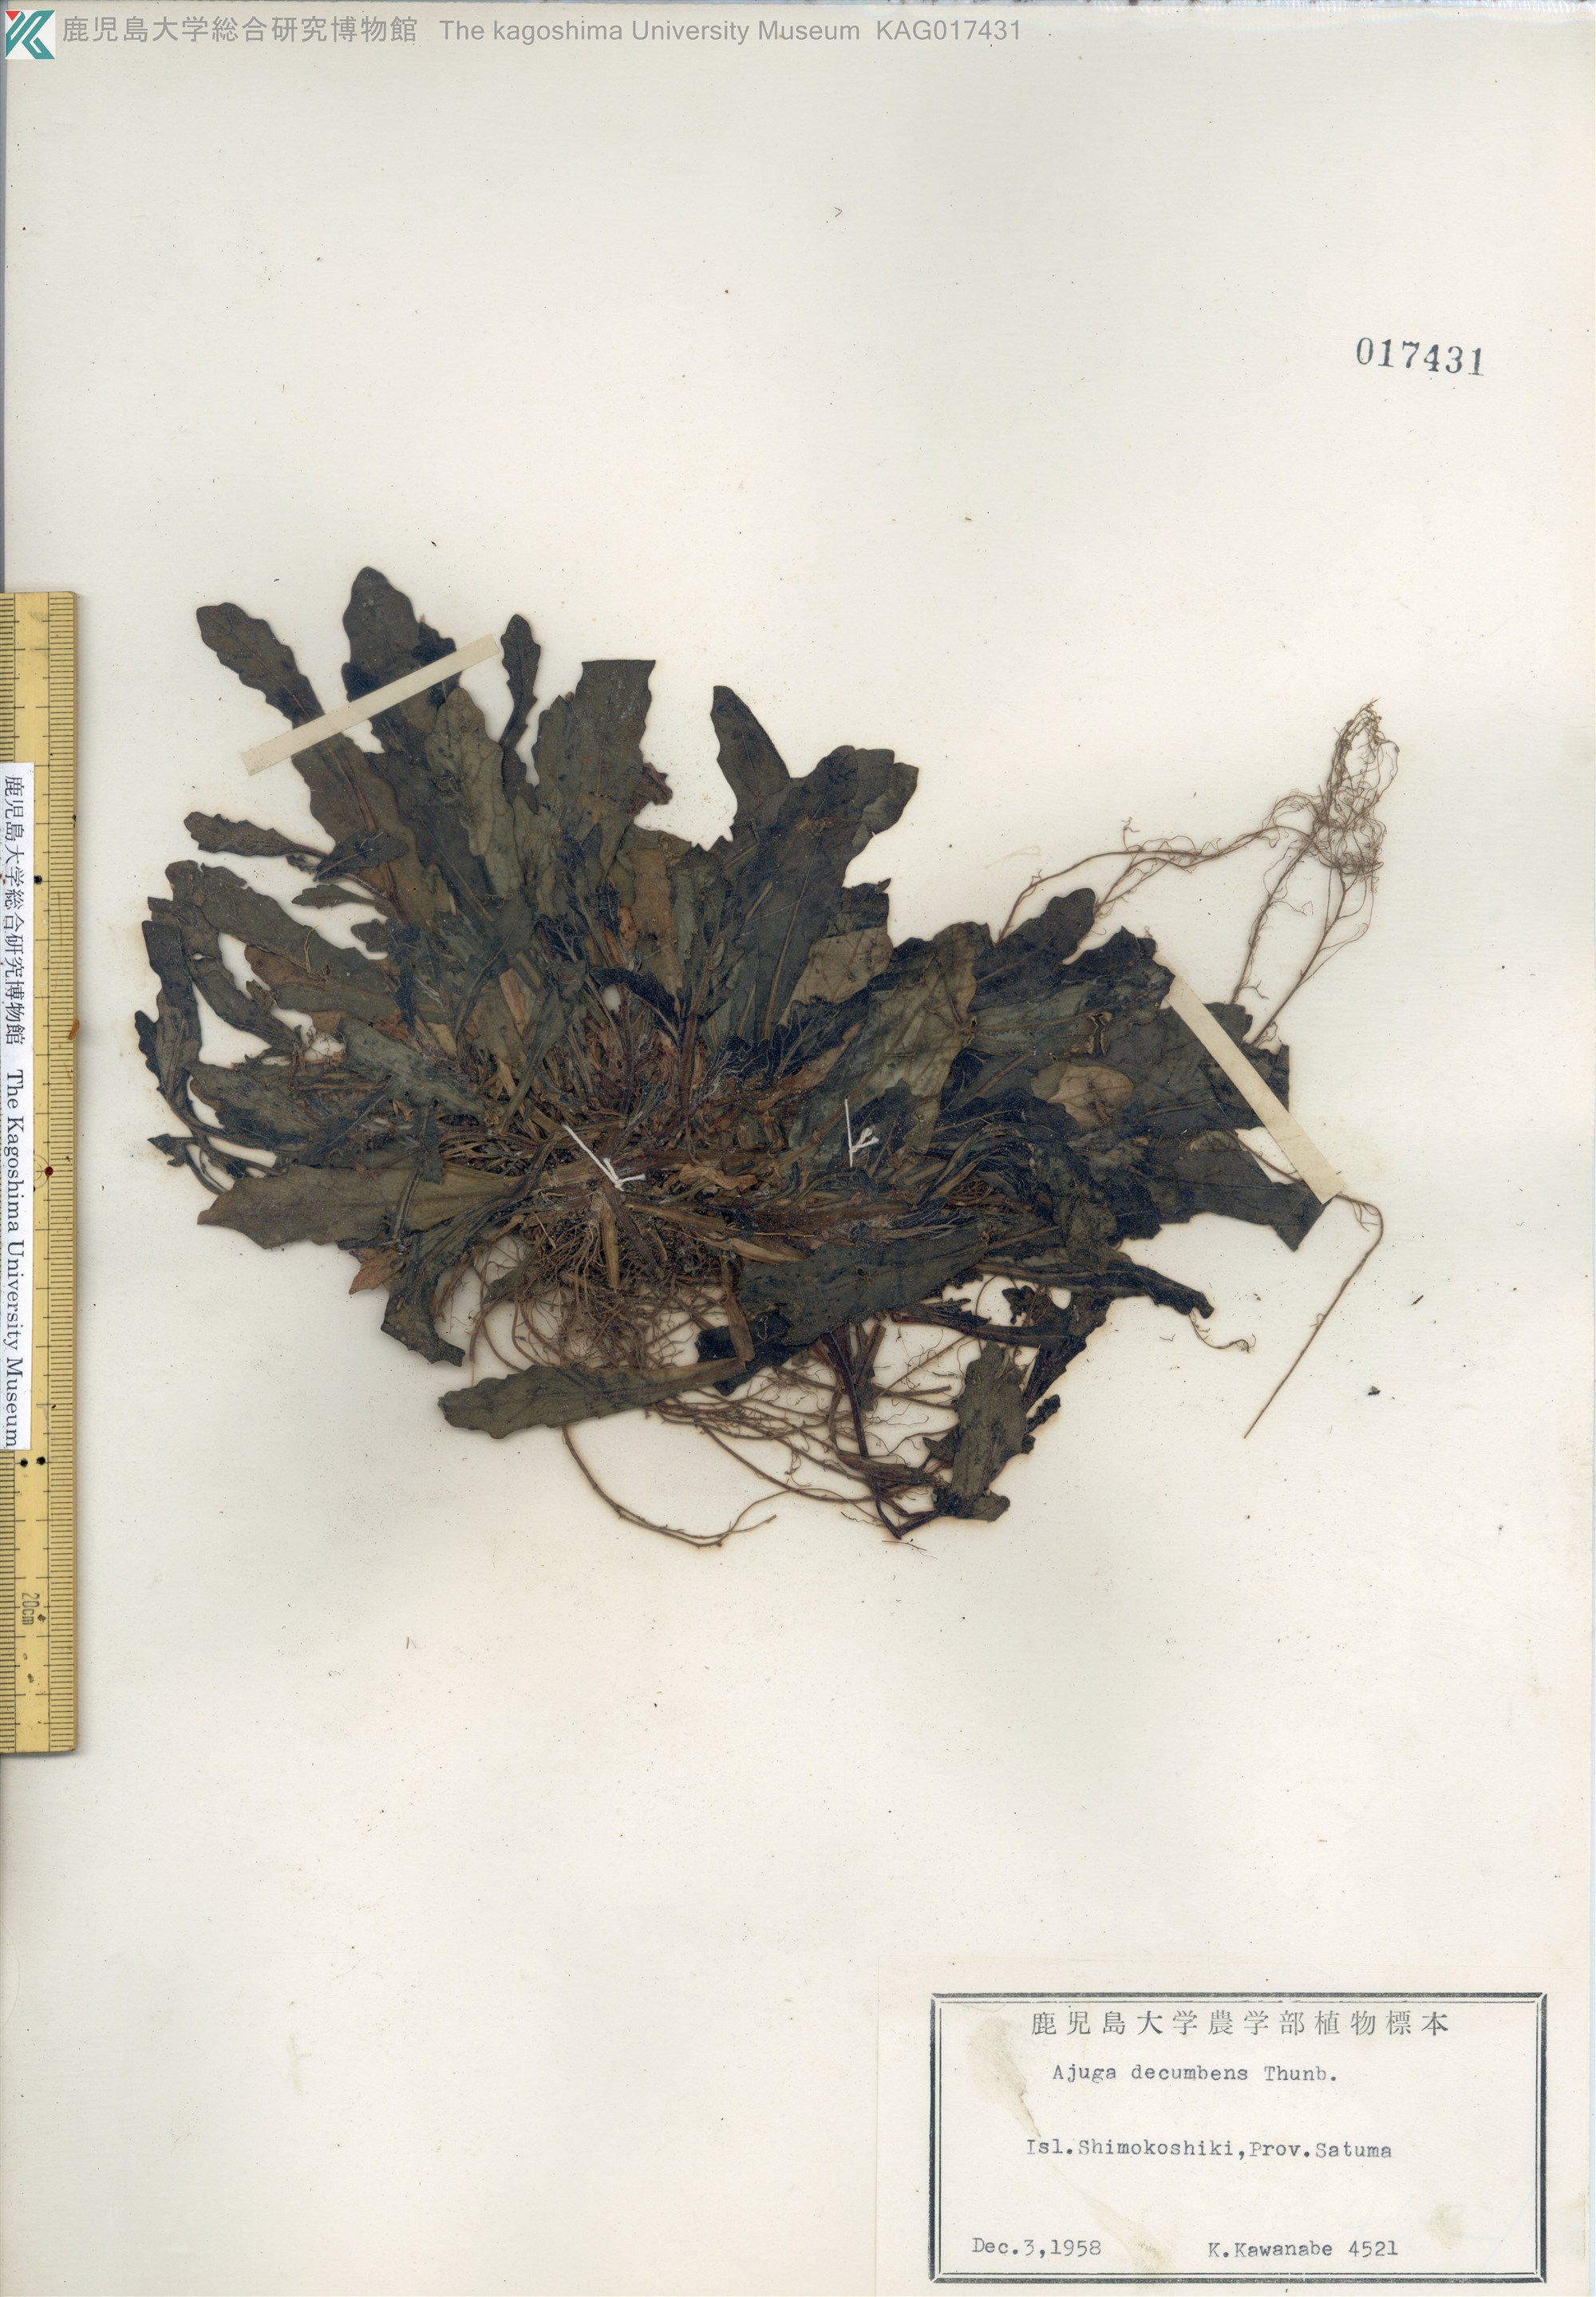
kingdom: Plantae
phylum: Tracheophyta
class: Magnoliopsida
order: Lamiales
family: Lamiaceae
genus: Ajuga
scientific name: Ajuga decumbens
